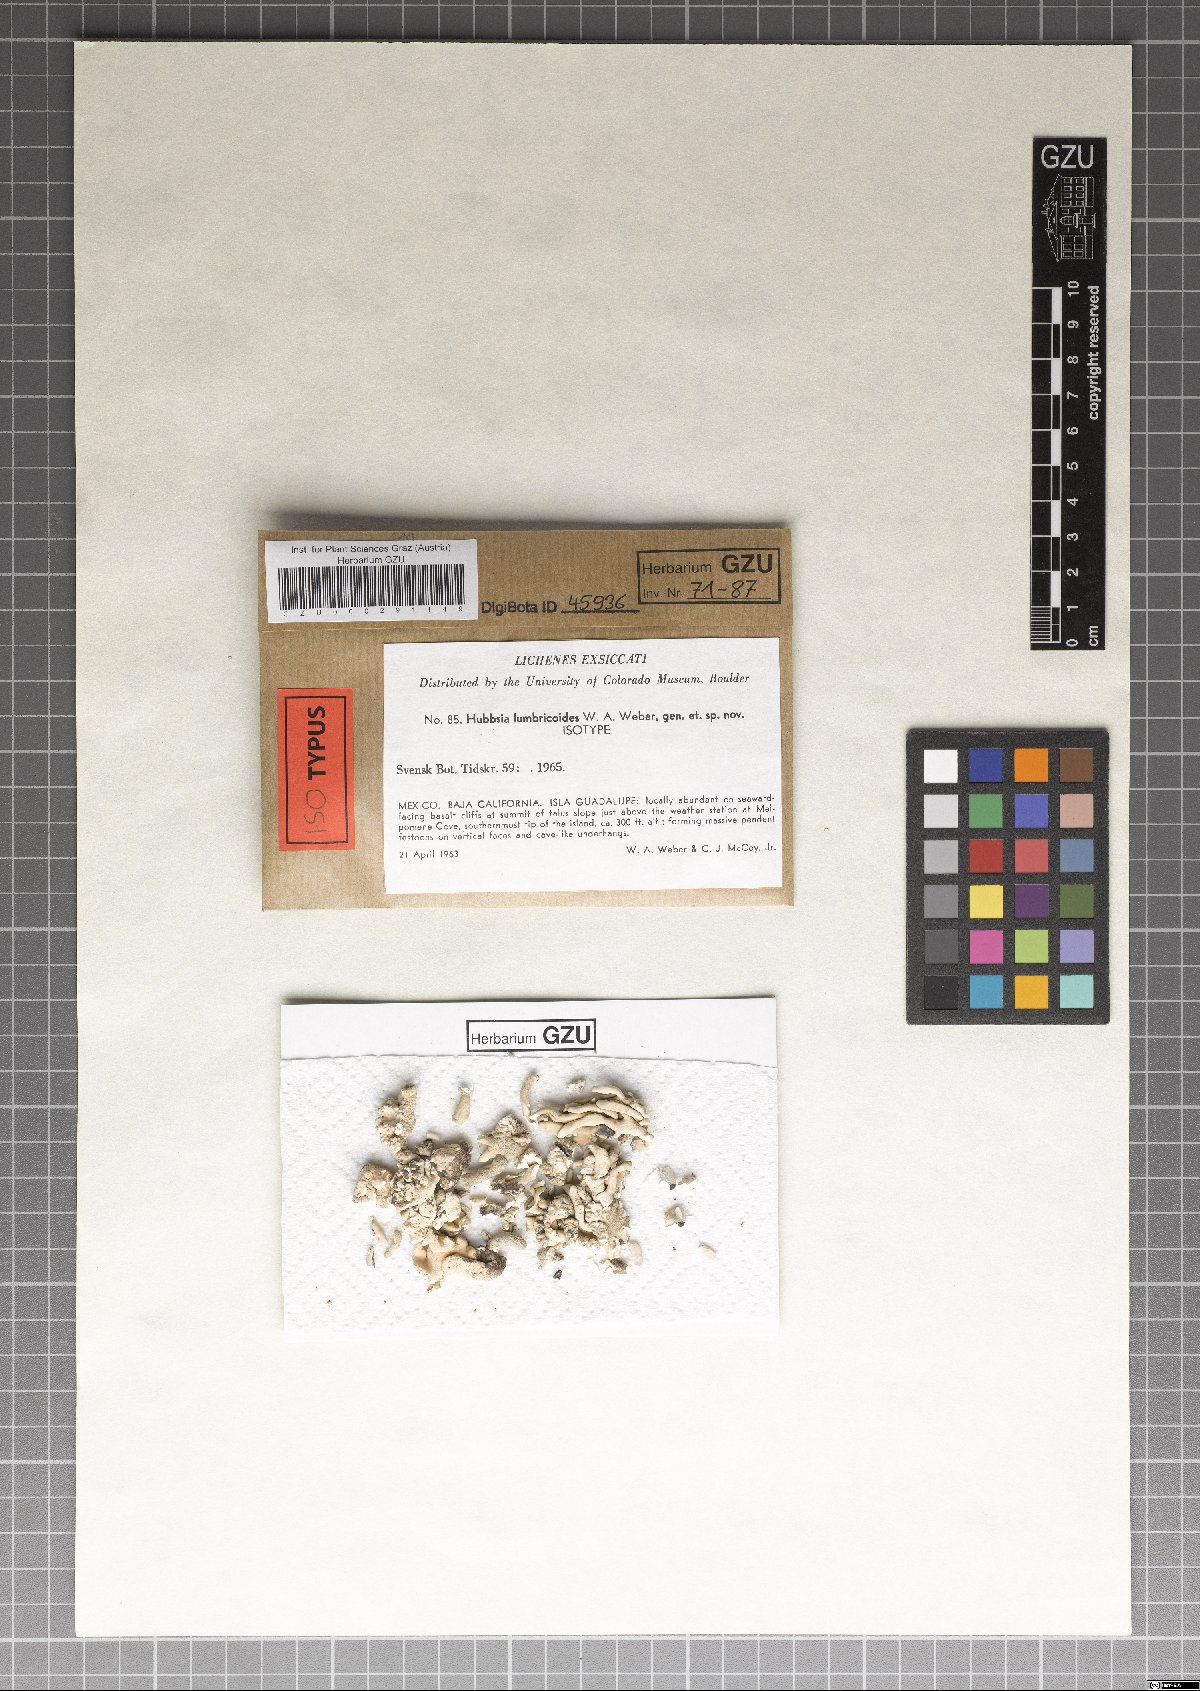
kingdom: Fungi
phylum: Ascomycota
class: Arthoniomycetes
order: Arthoniales
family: Opegraphaceae
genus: Schizopelte
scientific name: Schizopelte lumbricoides
